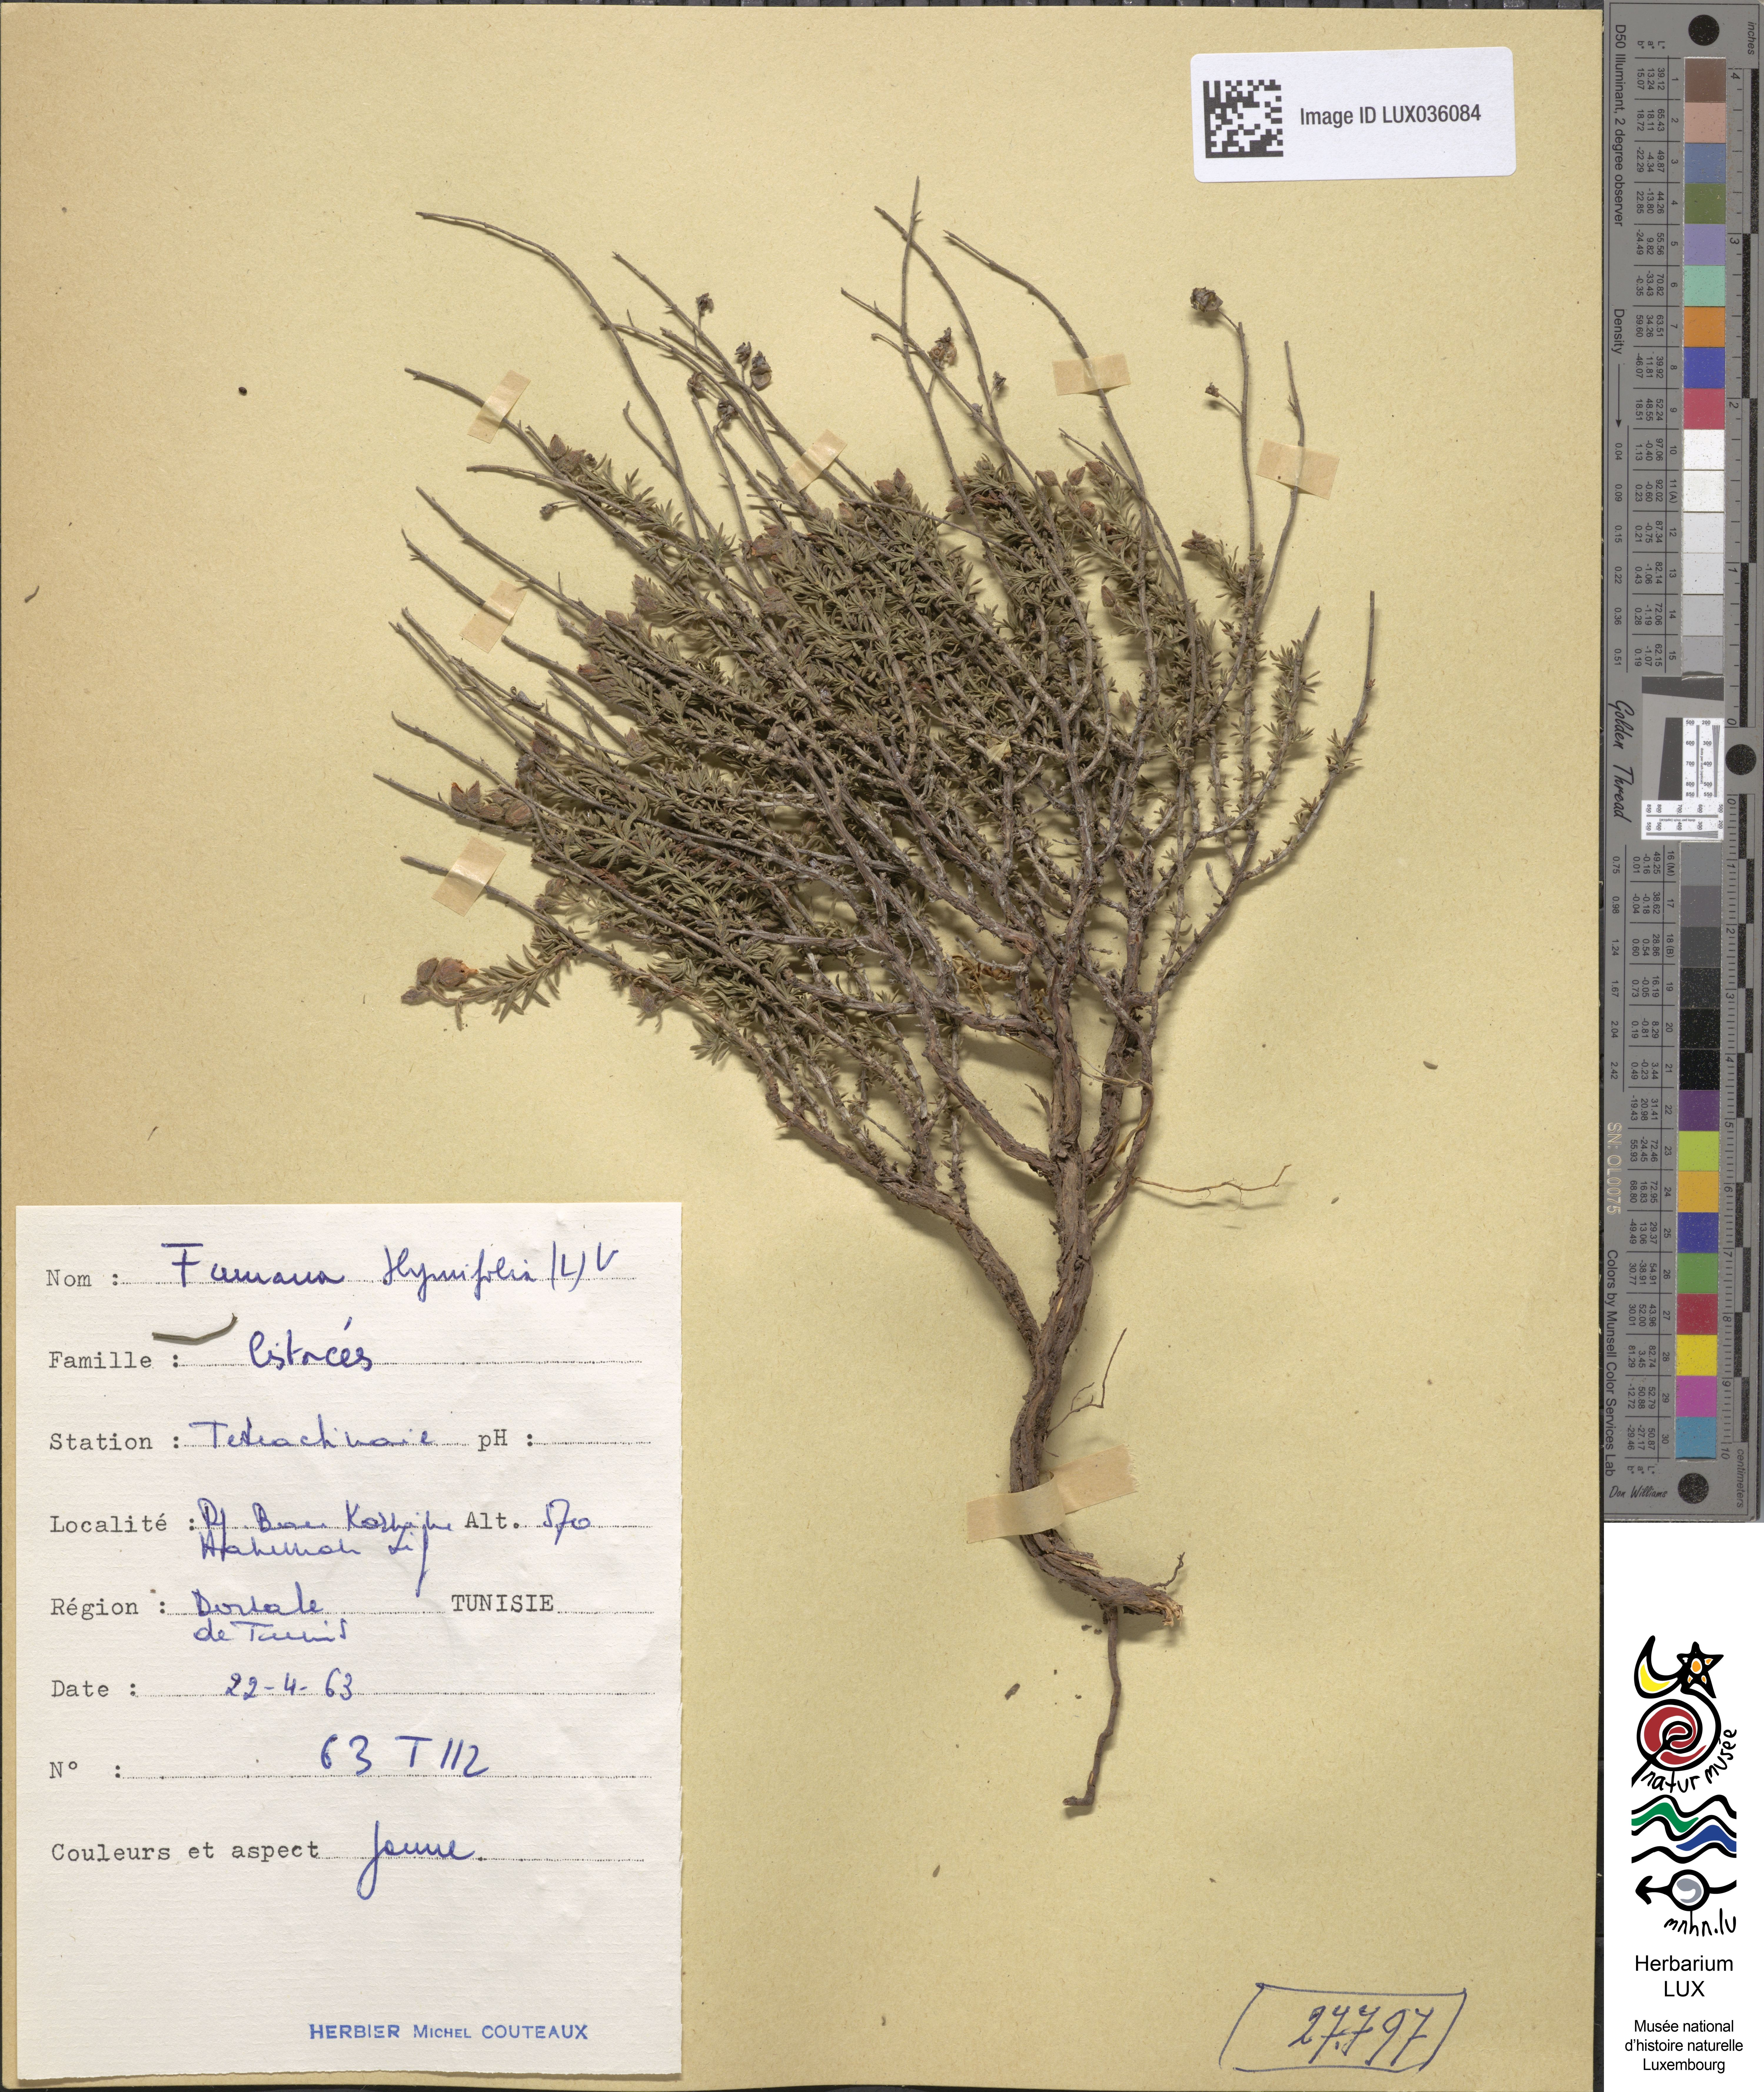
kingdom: Plantae
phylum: Tracheophyta
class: Magnoliopsida
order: Malvales
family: Cistaceae
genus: Fumana
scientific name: Fumana thymifolia
